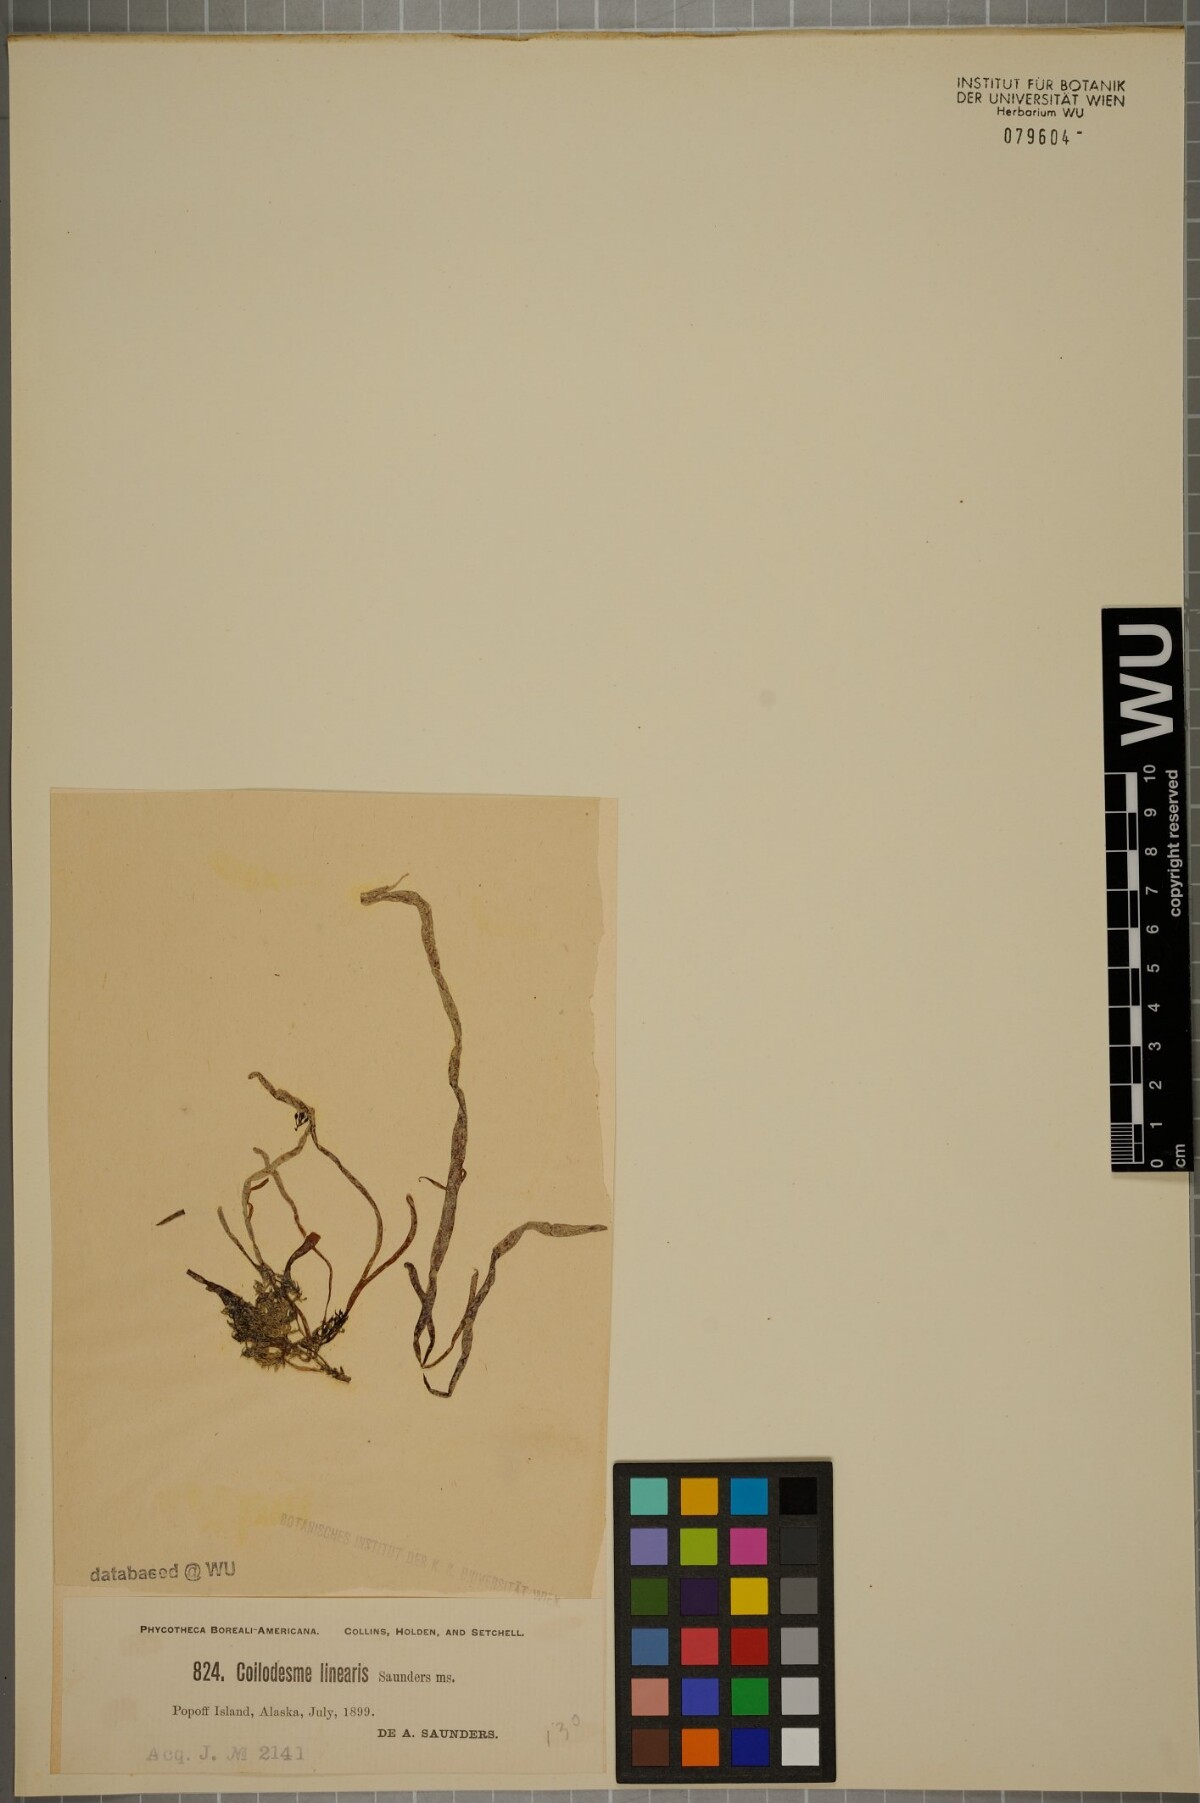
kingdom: Chromista
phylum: Ochrophyta
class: Phaeophyceae
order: Ectocarpales
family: Chordariaceae
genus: Coilodesme
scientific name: Coilodesme
